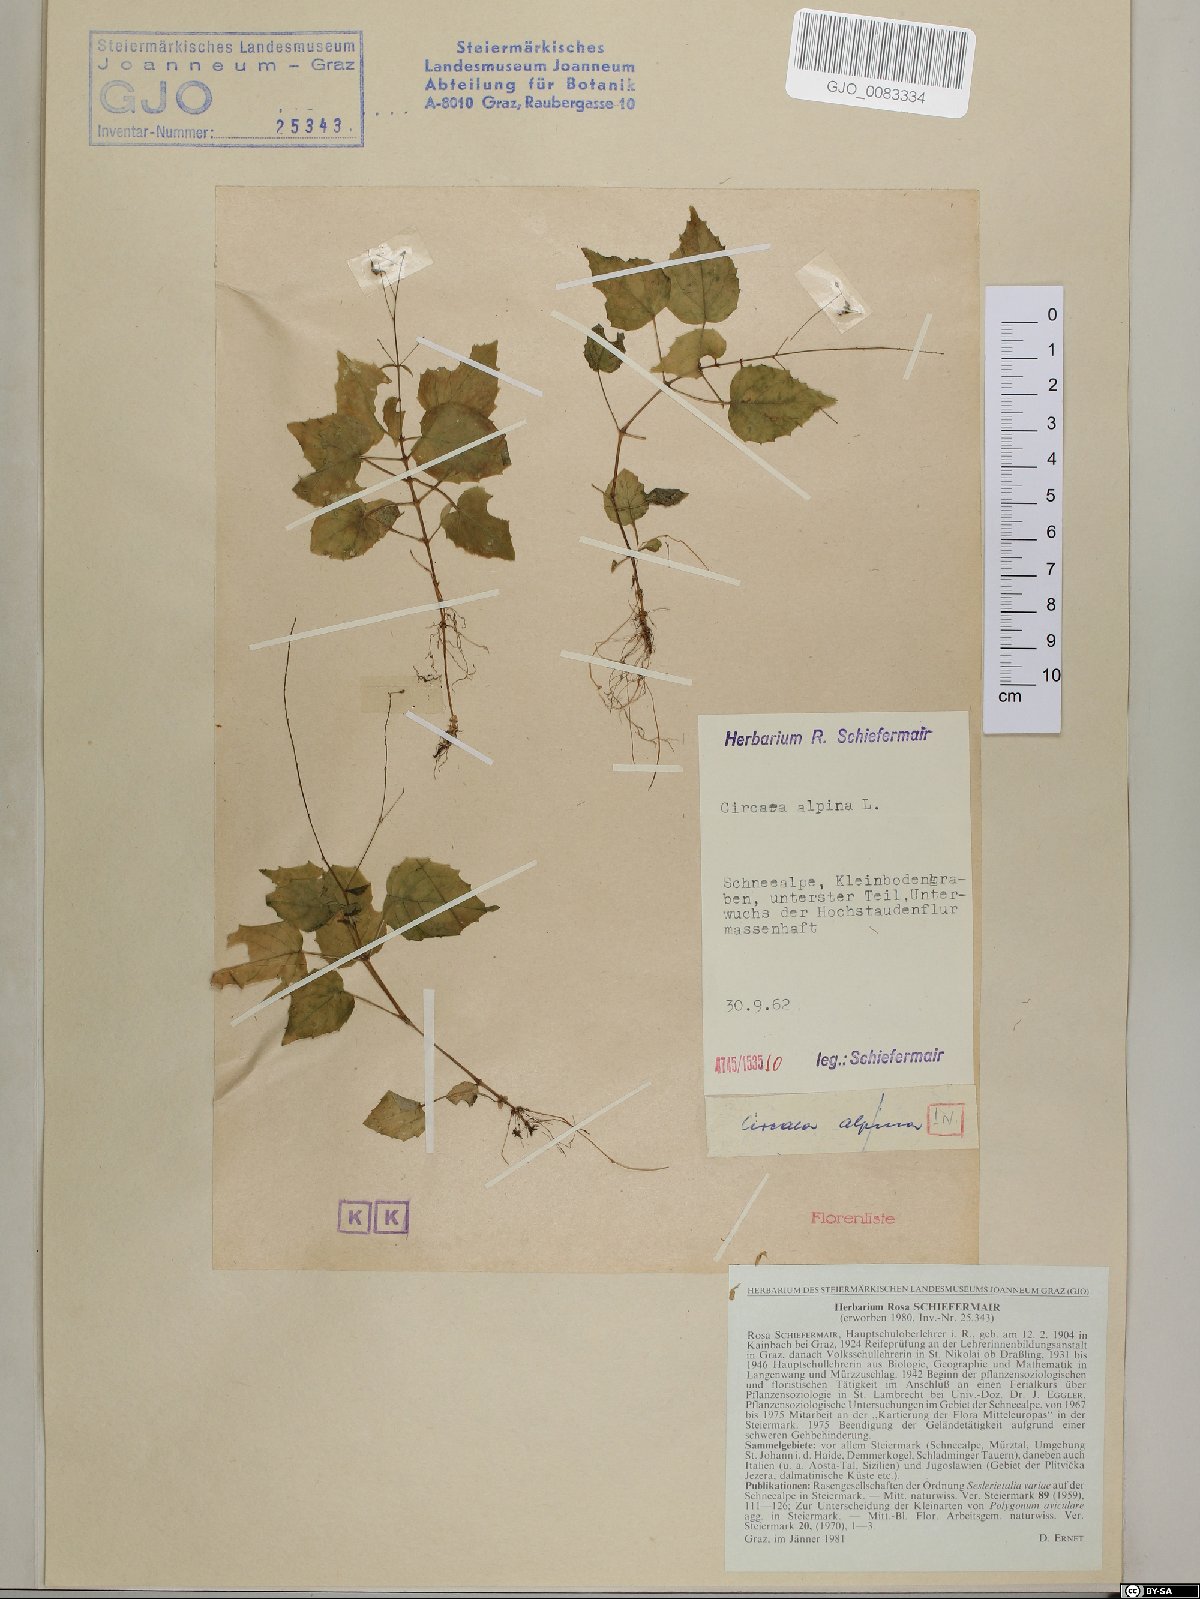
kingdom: Plantae
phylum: Tracheophyta
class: Magnoliopsida
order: Myrtales
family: Onagraceae
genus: Circaea
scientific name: Circaea alpina
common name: Alpine enchanter's-nightshade
